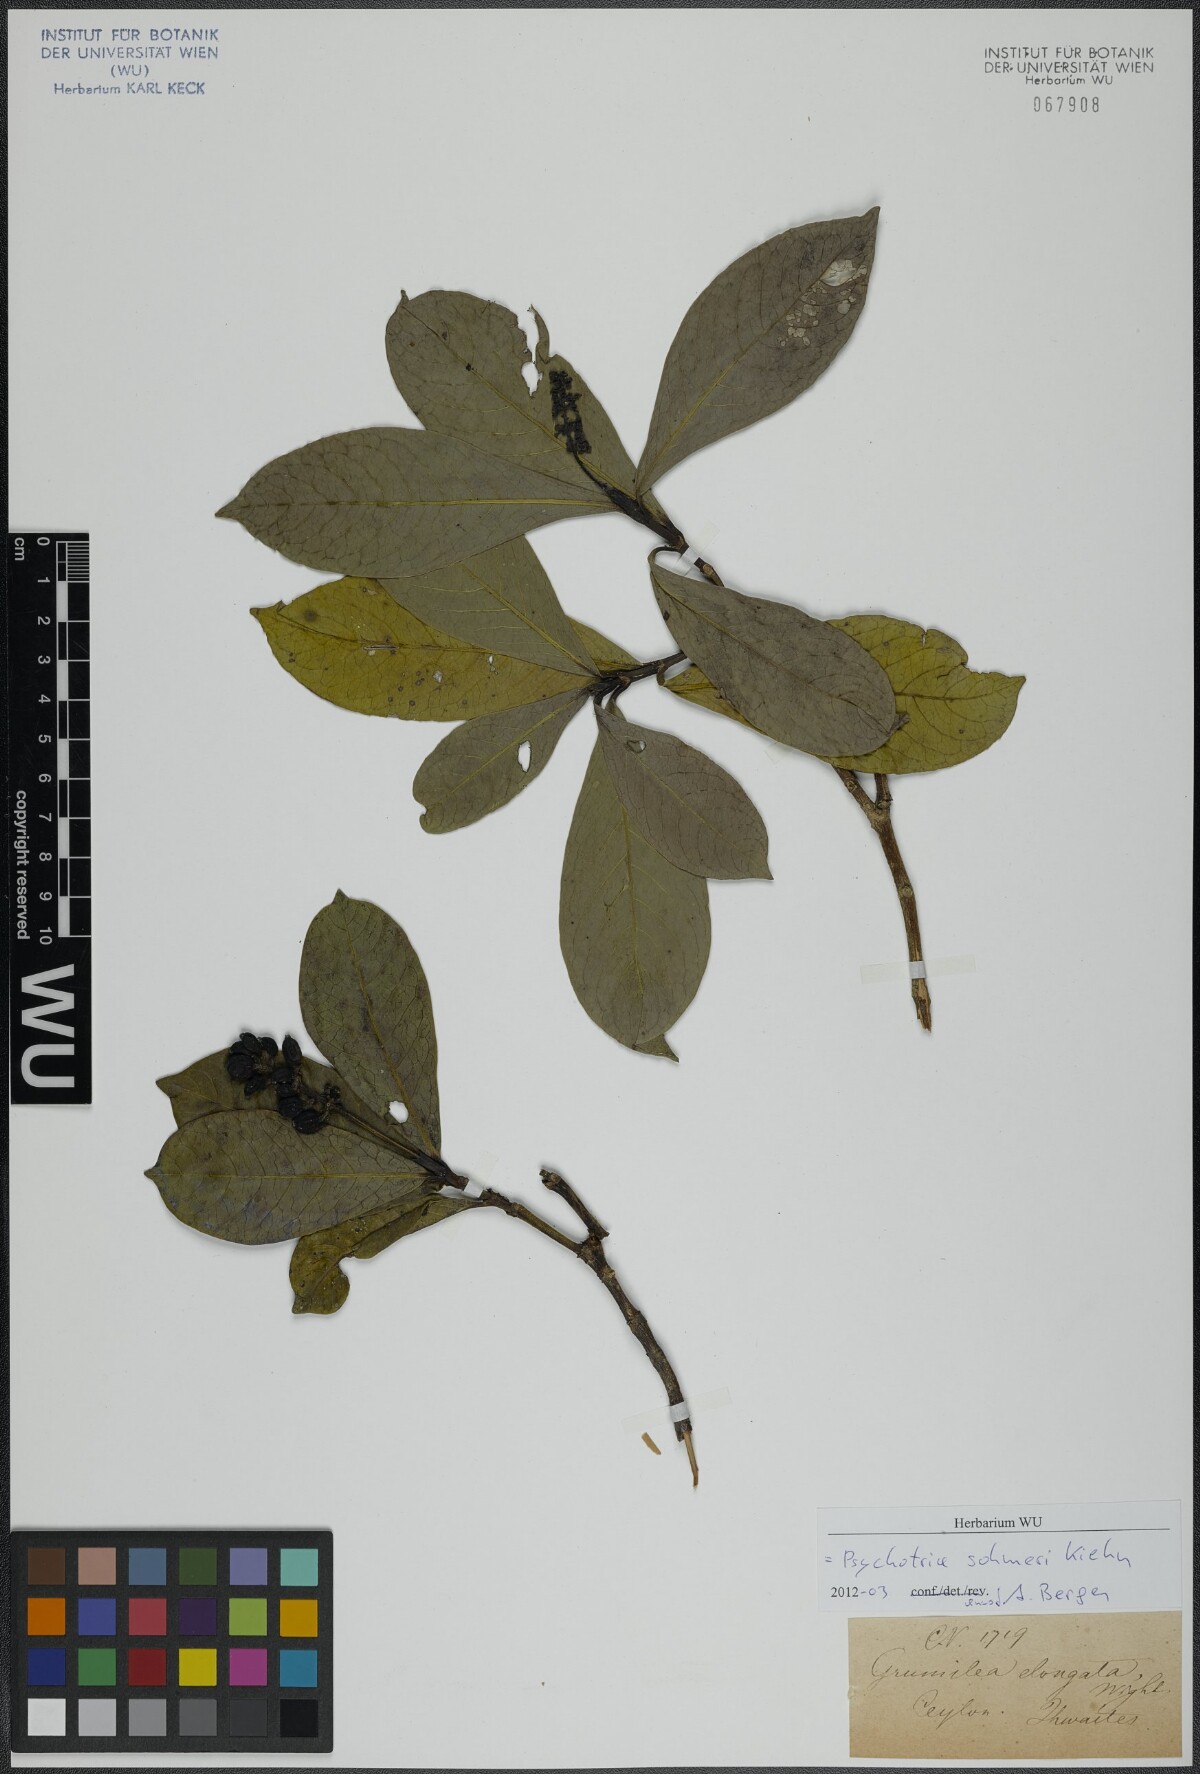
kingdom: Plantae
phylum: Tracheophyta
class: Magnoliopsida
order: Gentianales
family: Rubiaceae
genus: Psychotria
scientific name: Psychotria nilgherensis
